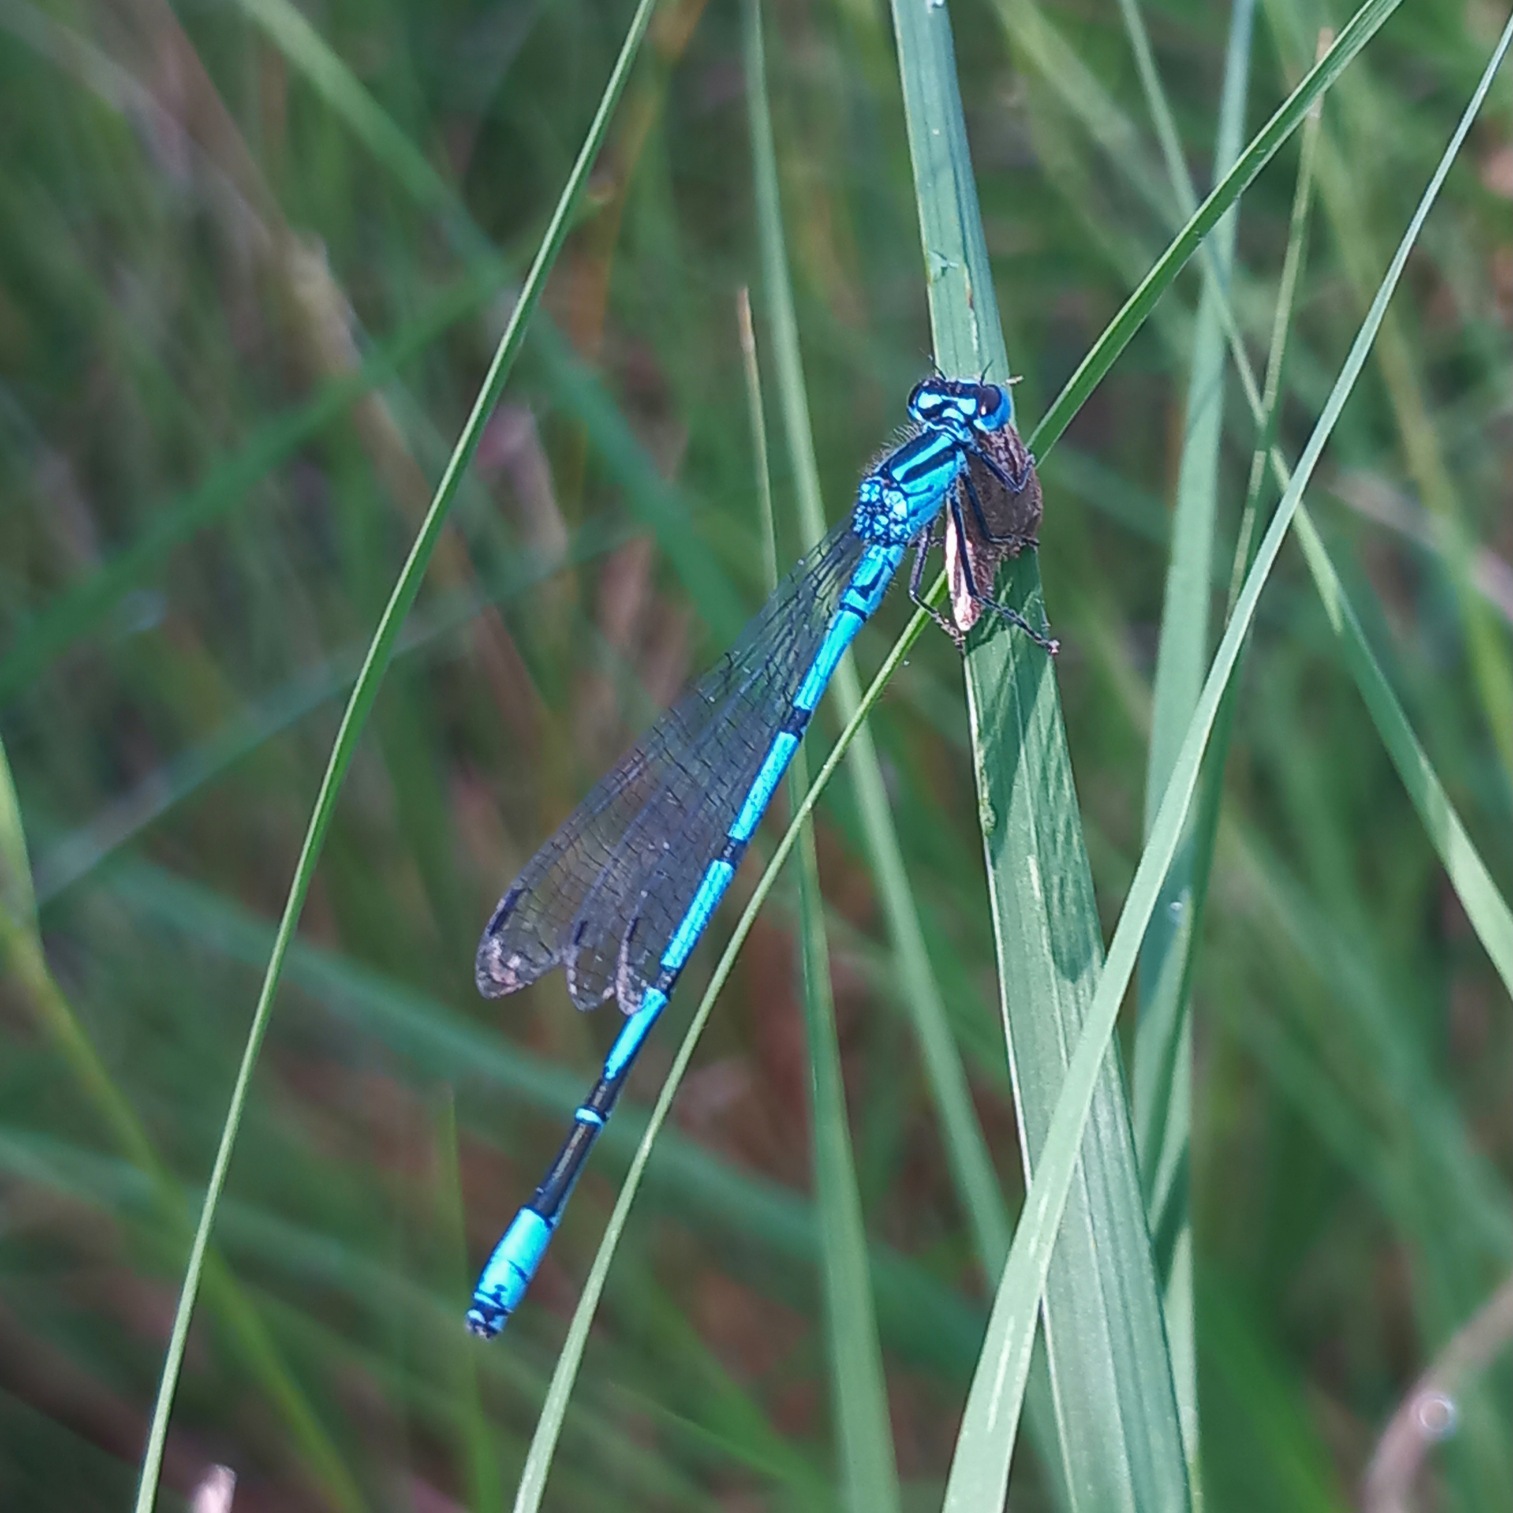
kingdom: Animalia
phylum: Arthropoda
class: Insecta
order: Odonata
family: Coenagrionidae
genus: Coenagrion
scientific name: Coenagrion puella
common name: Hestesko-vandnymfe
